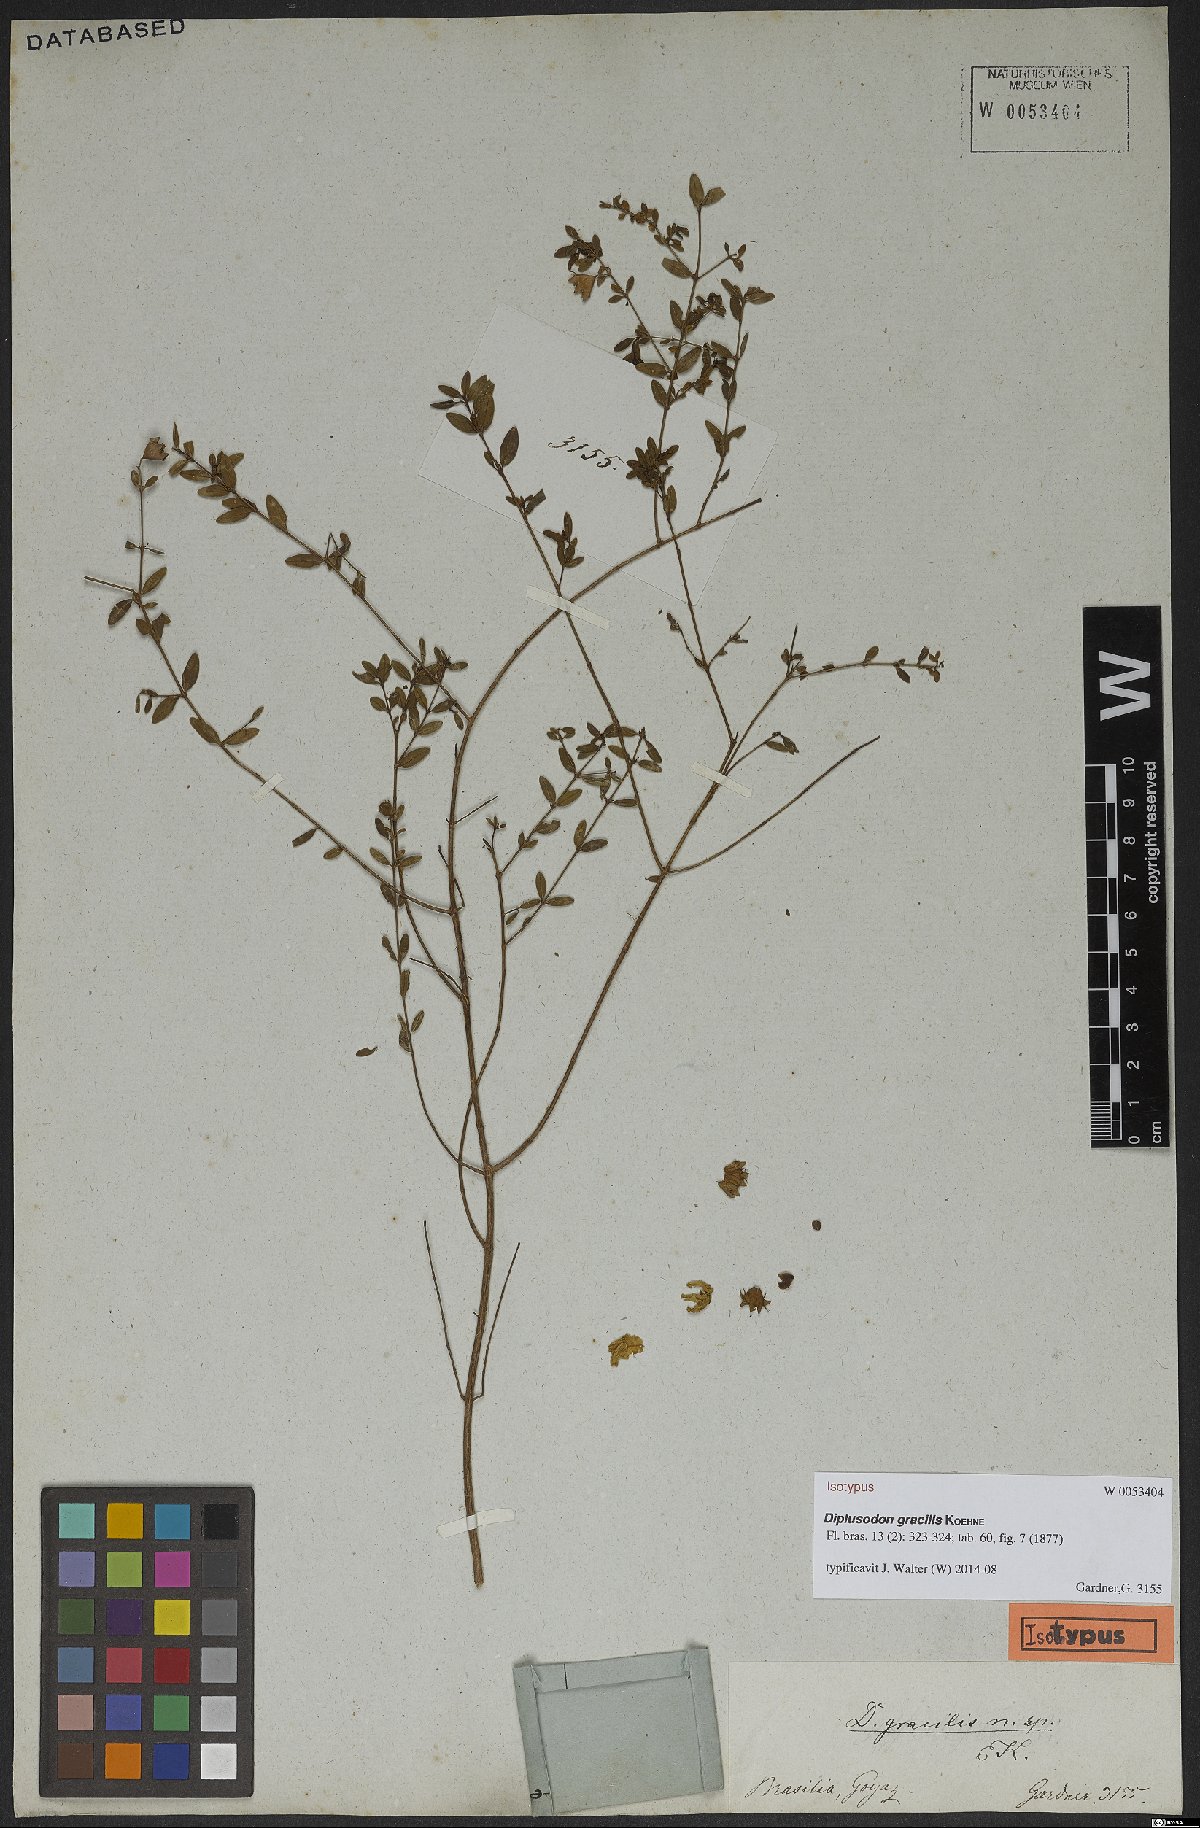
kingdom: Plantae
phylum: Tracheophyta
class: Magnoliopsida
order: Myrtales
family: Lythraceae
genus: Diplusodon
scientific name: Diplusodon gracilis
